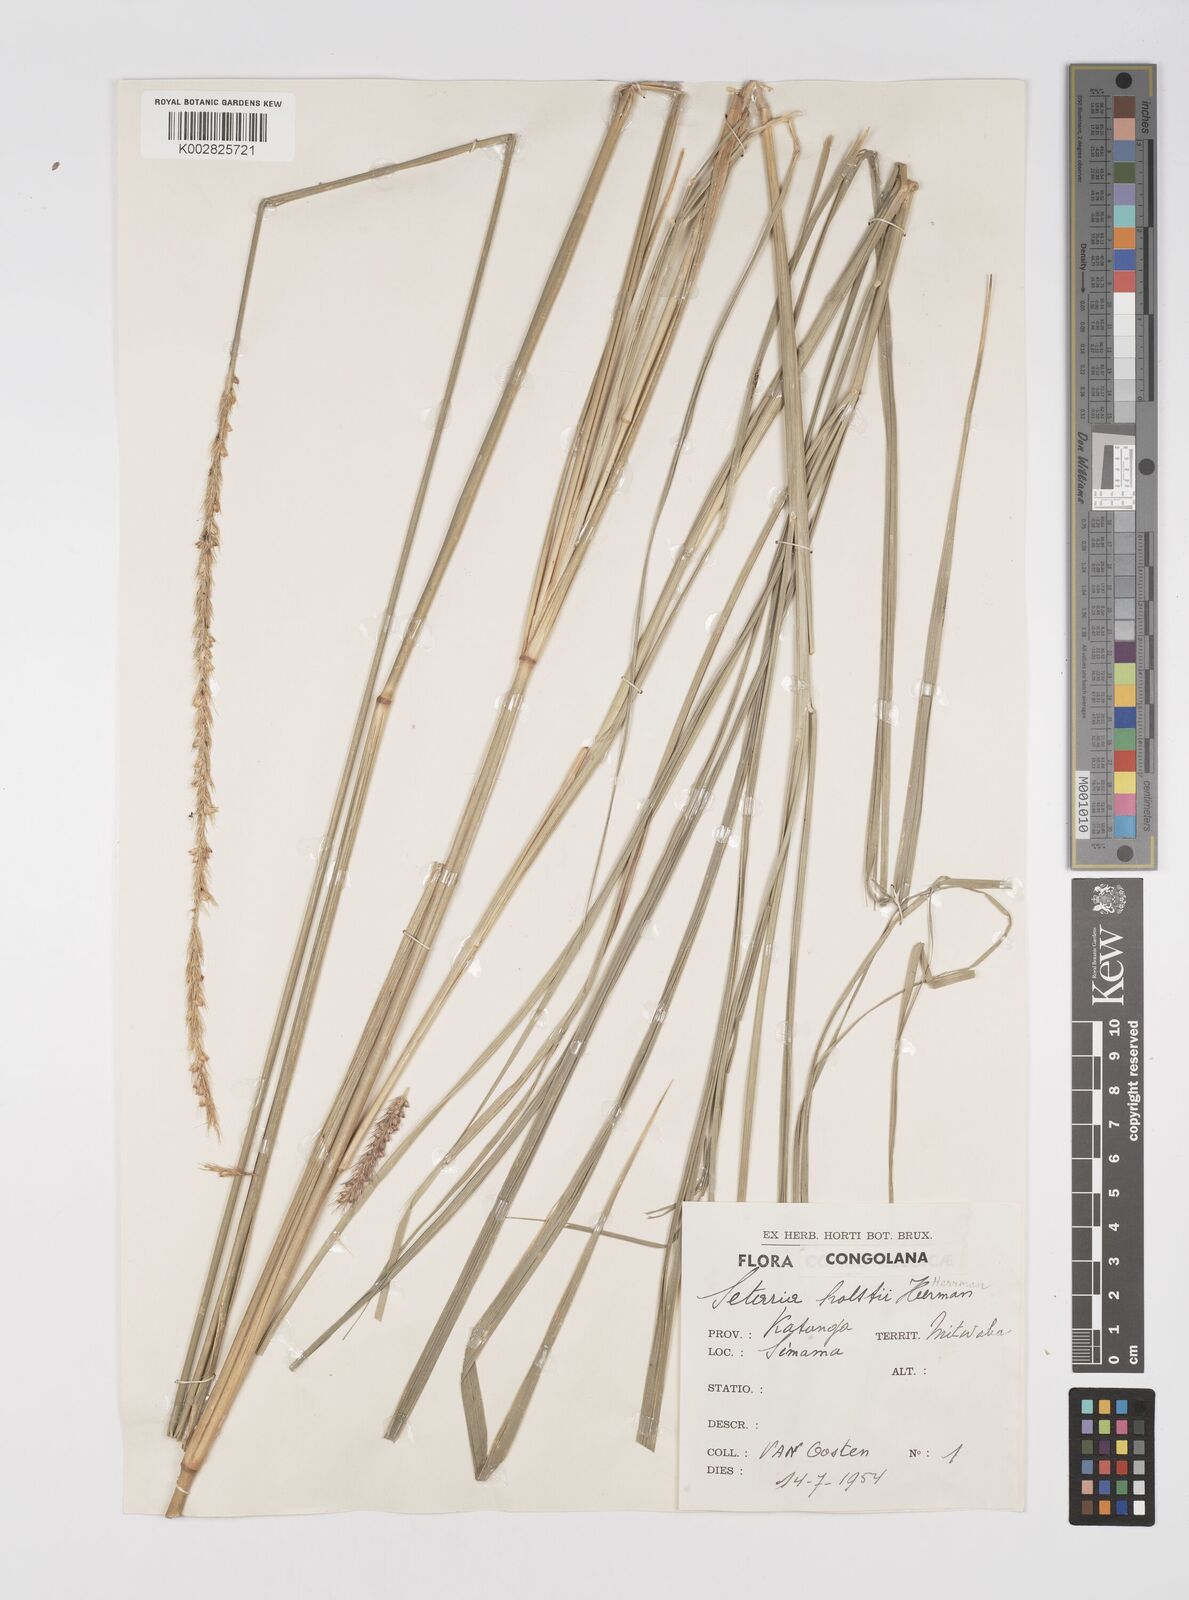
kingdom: Plantae
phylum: Tracheophyta
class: Liliopsida
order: Poales
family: Poaceae
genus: Setaria
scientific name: Setaria incrassata
